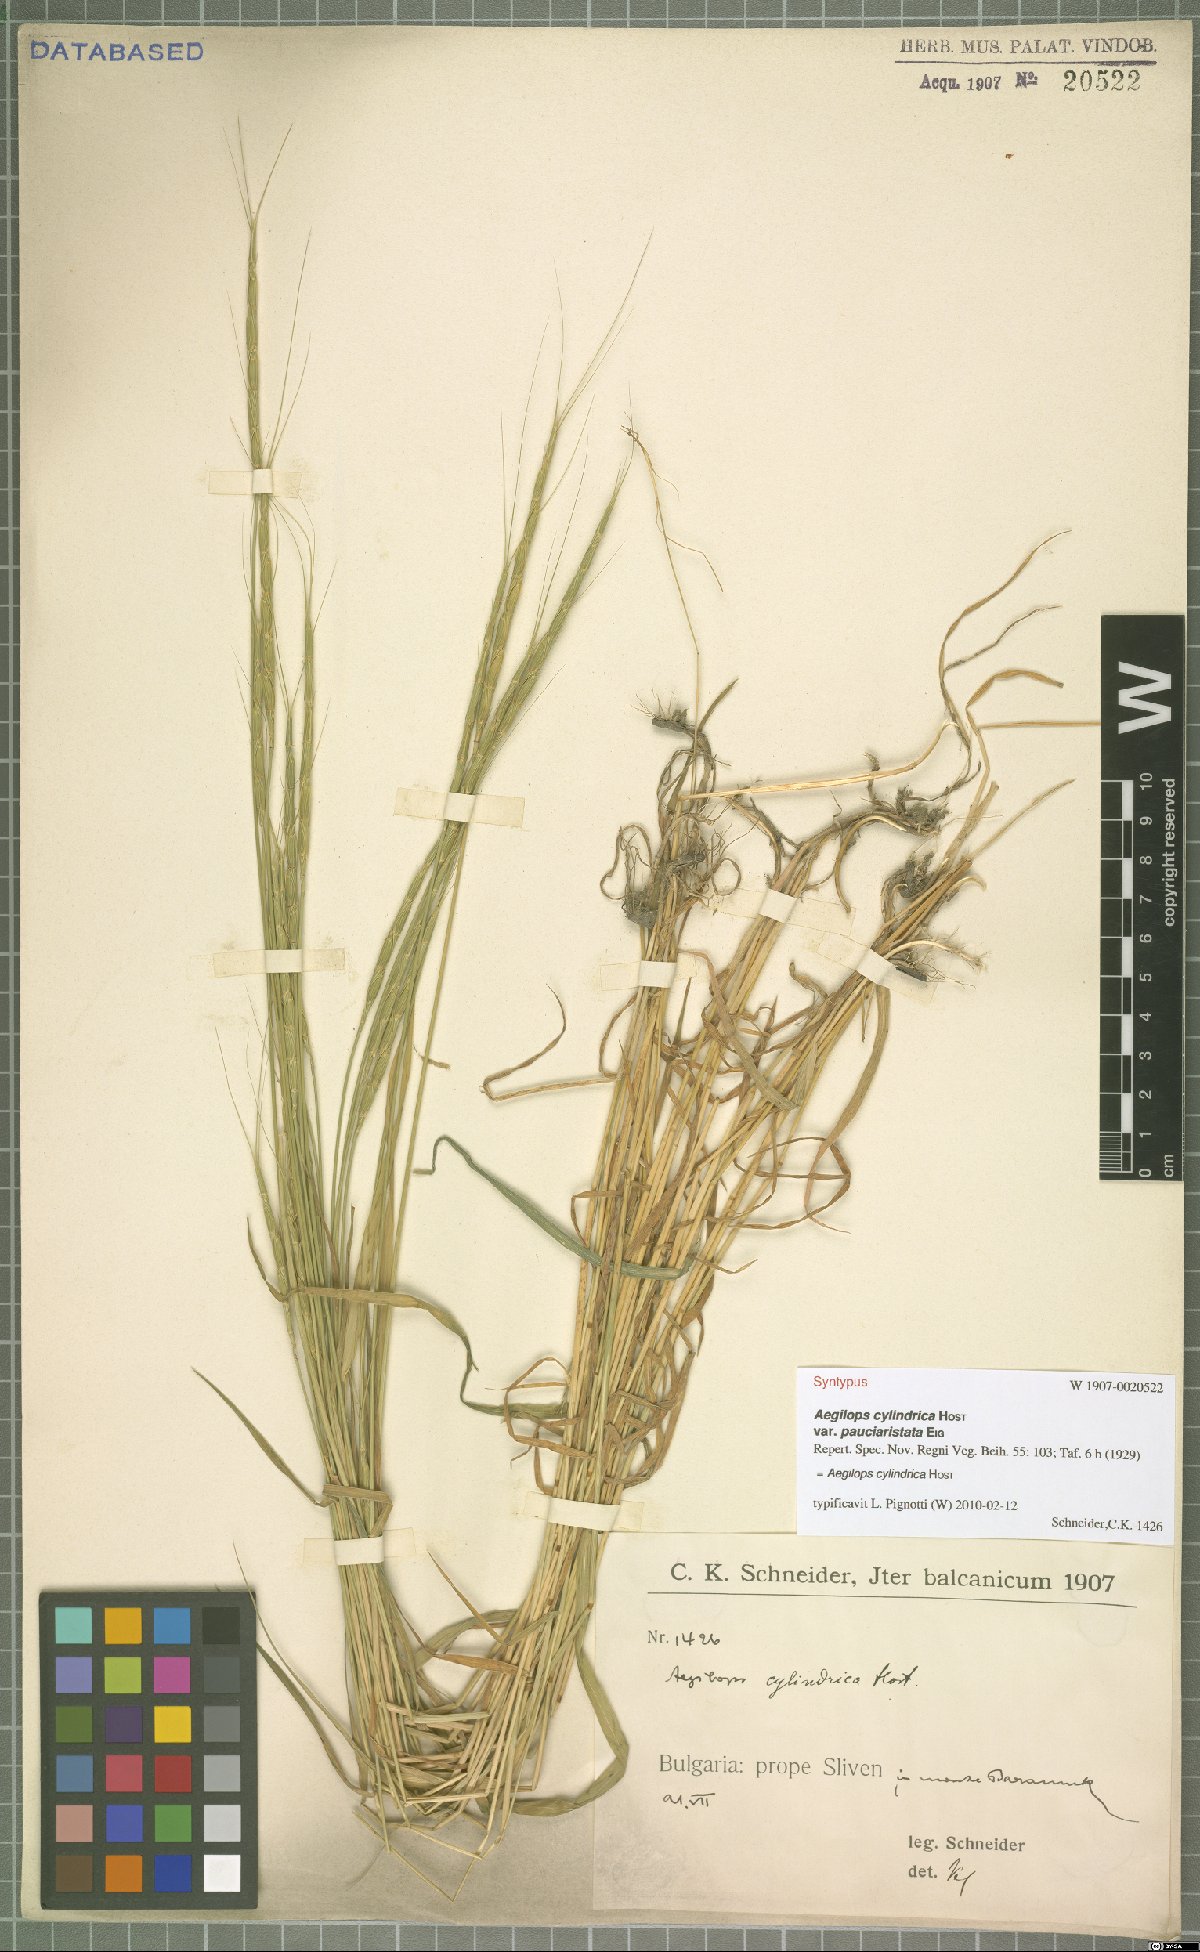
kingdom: Plantae
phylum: Tracheophyta
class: Liliopsida
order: Poales
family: Poaceae
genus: Aegilops
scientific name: Aegilops cylindrica
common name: Jointed goatgrass
